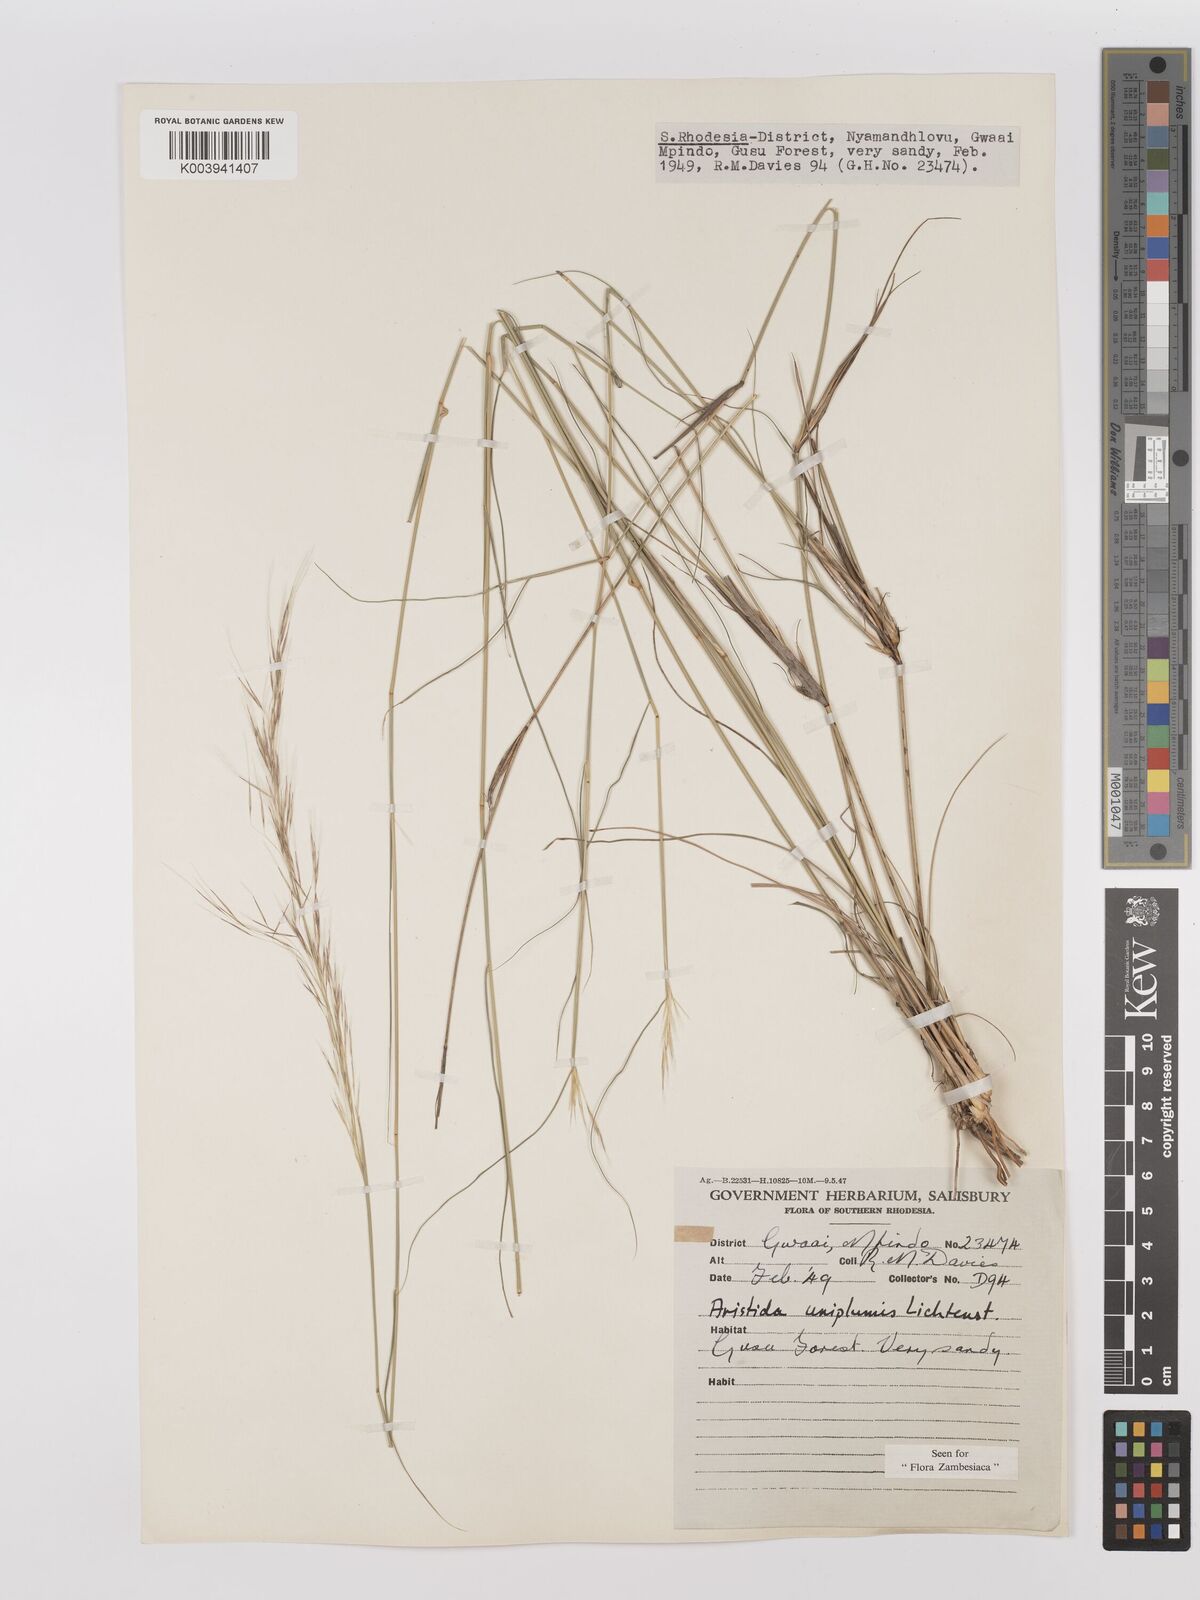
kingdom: Plantae
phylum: Tracheophyta
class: Liliopsida
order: Poales
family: Poaceae
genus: Stipagrostis
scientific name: Stipagrostis uniplumis
